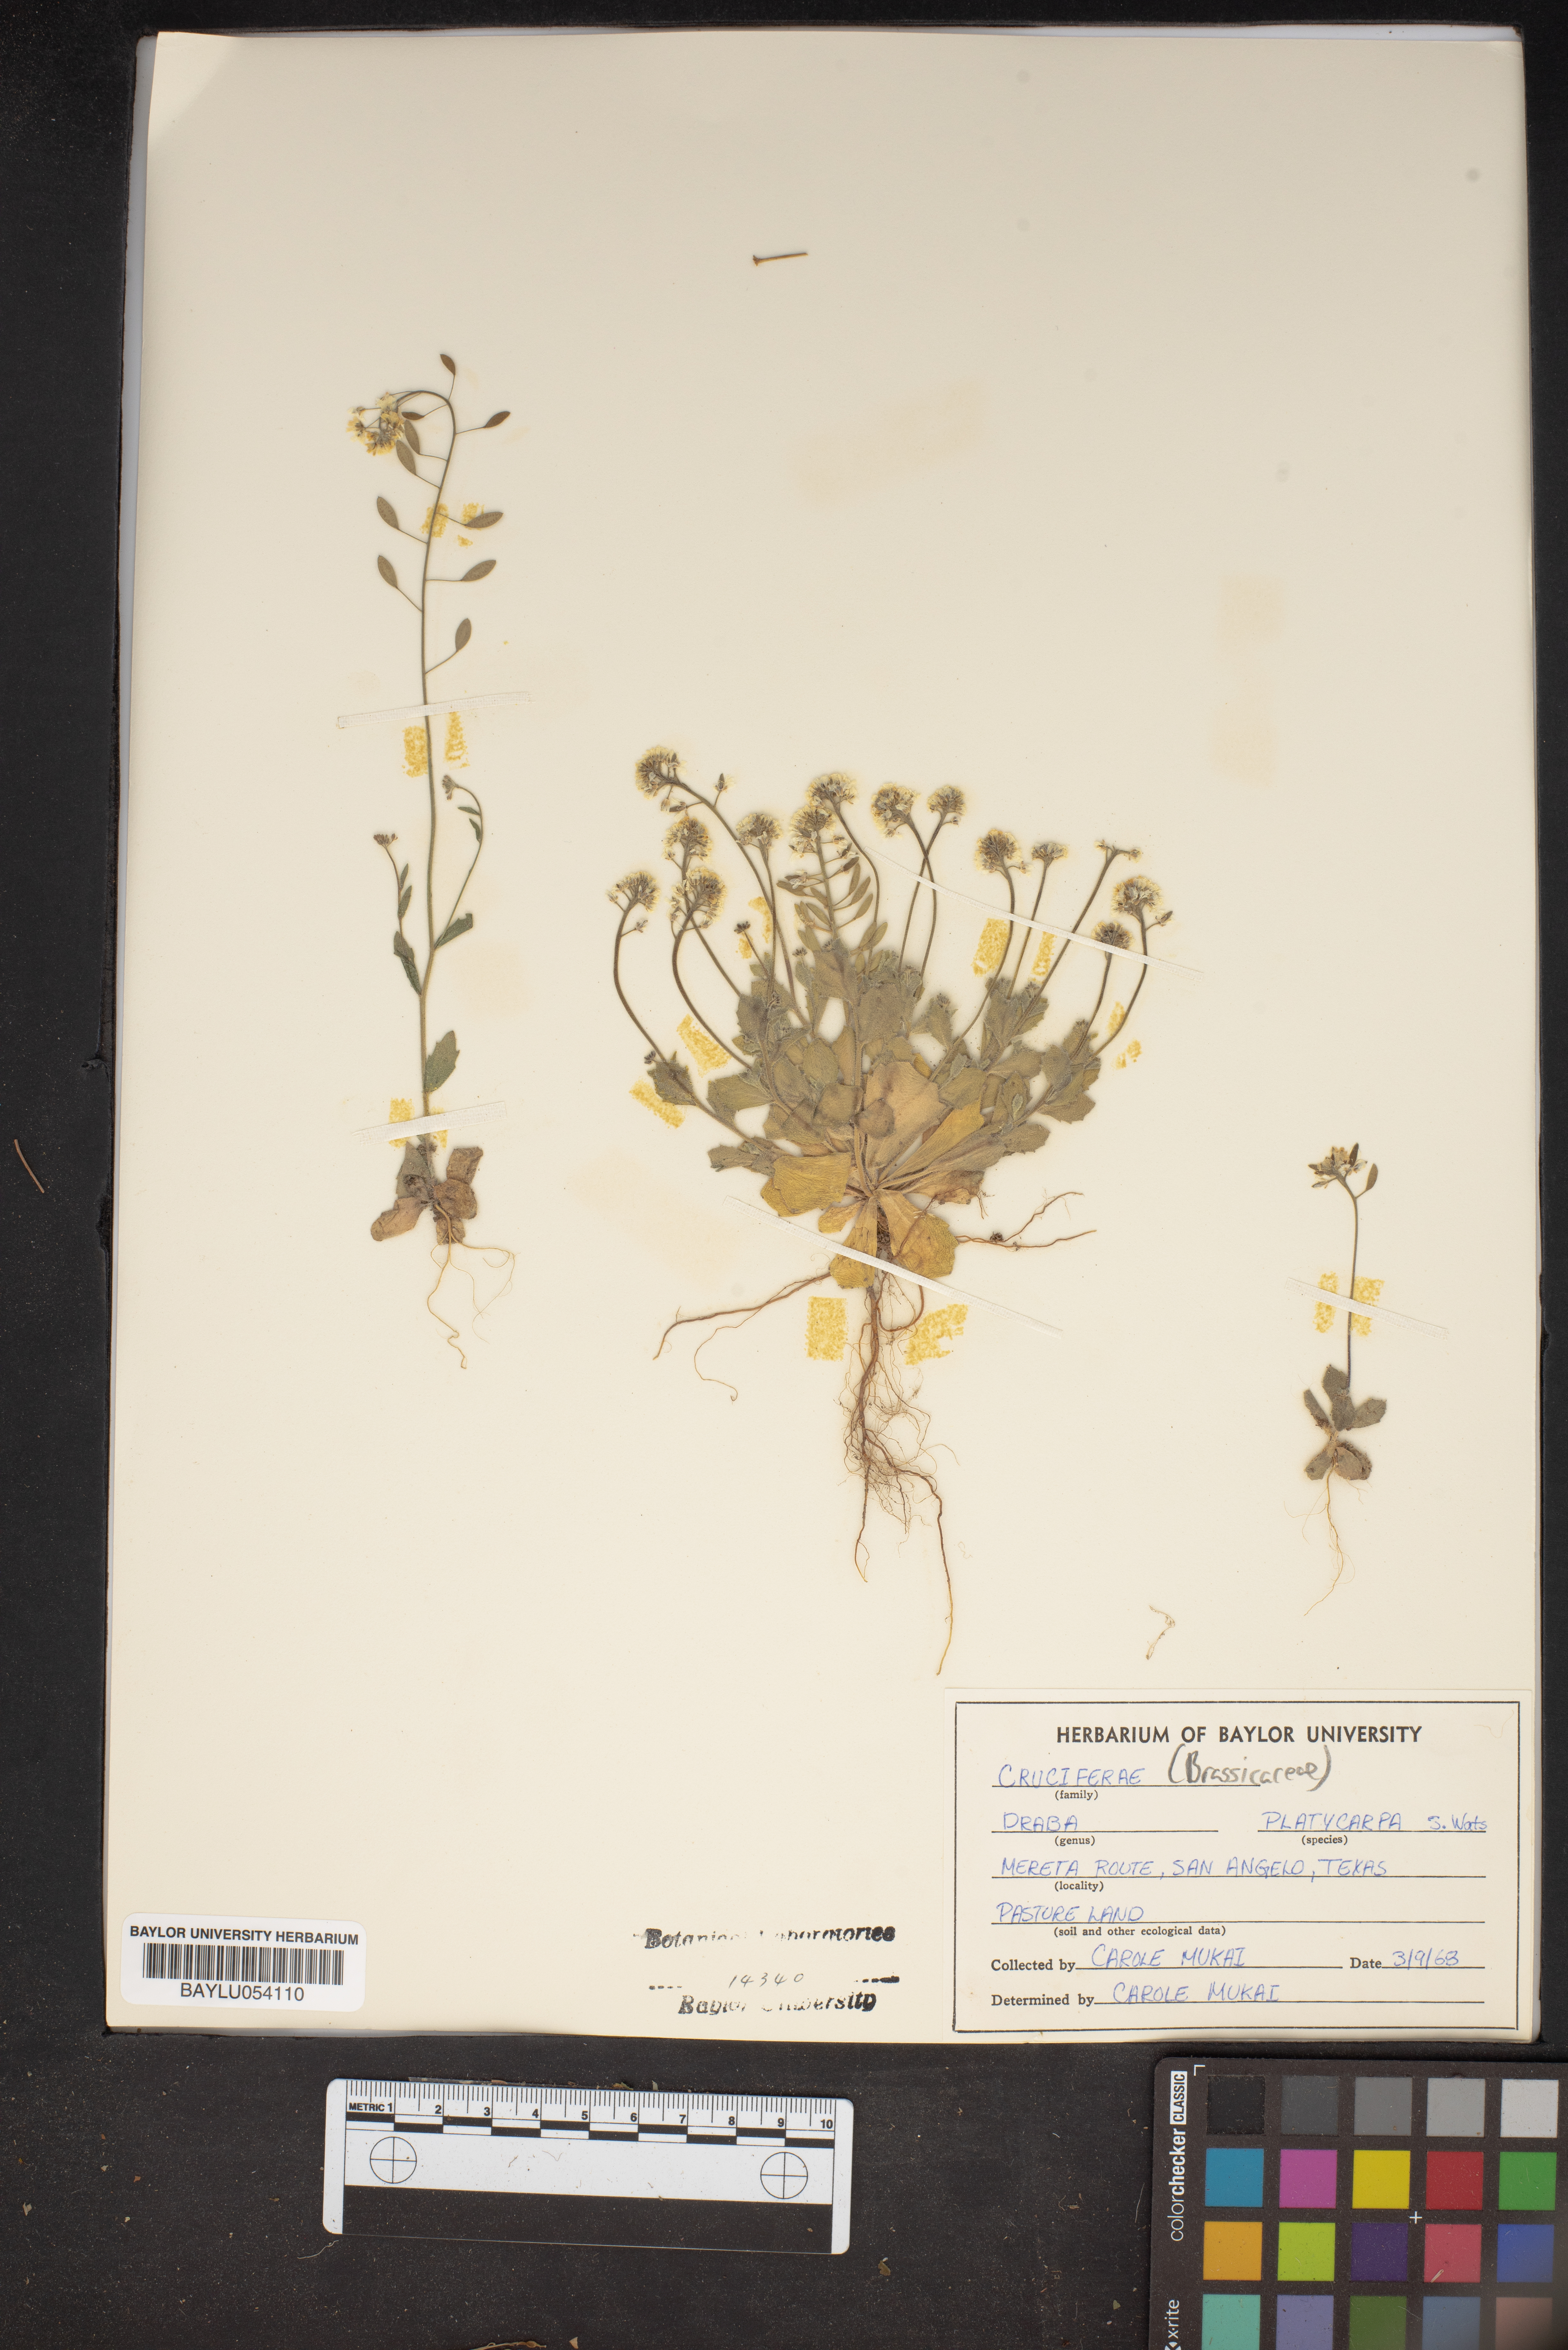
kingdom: Plantae
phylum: Tracheophyta
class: Magnoliopsida
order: Brassicales
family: Brassicaceae
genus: Tomostima
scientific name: Tomostima platycarpa
